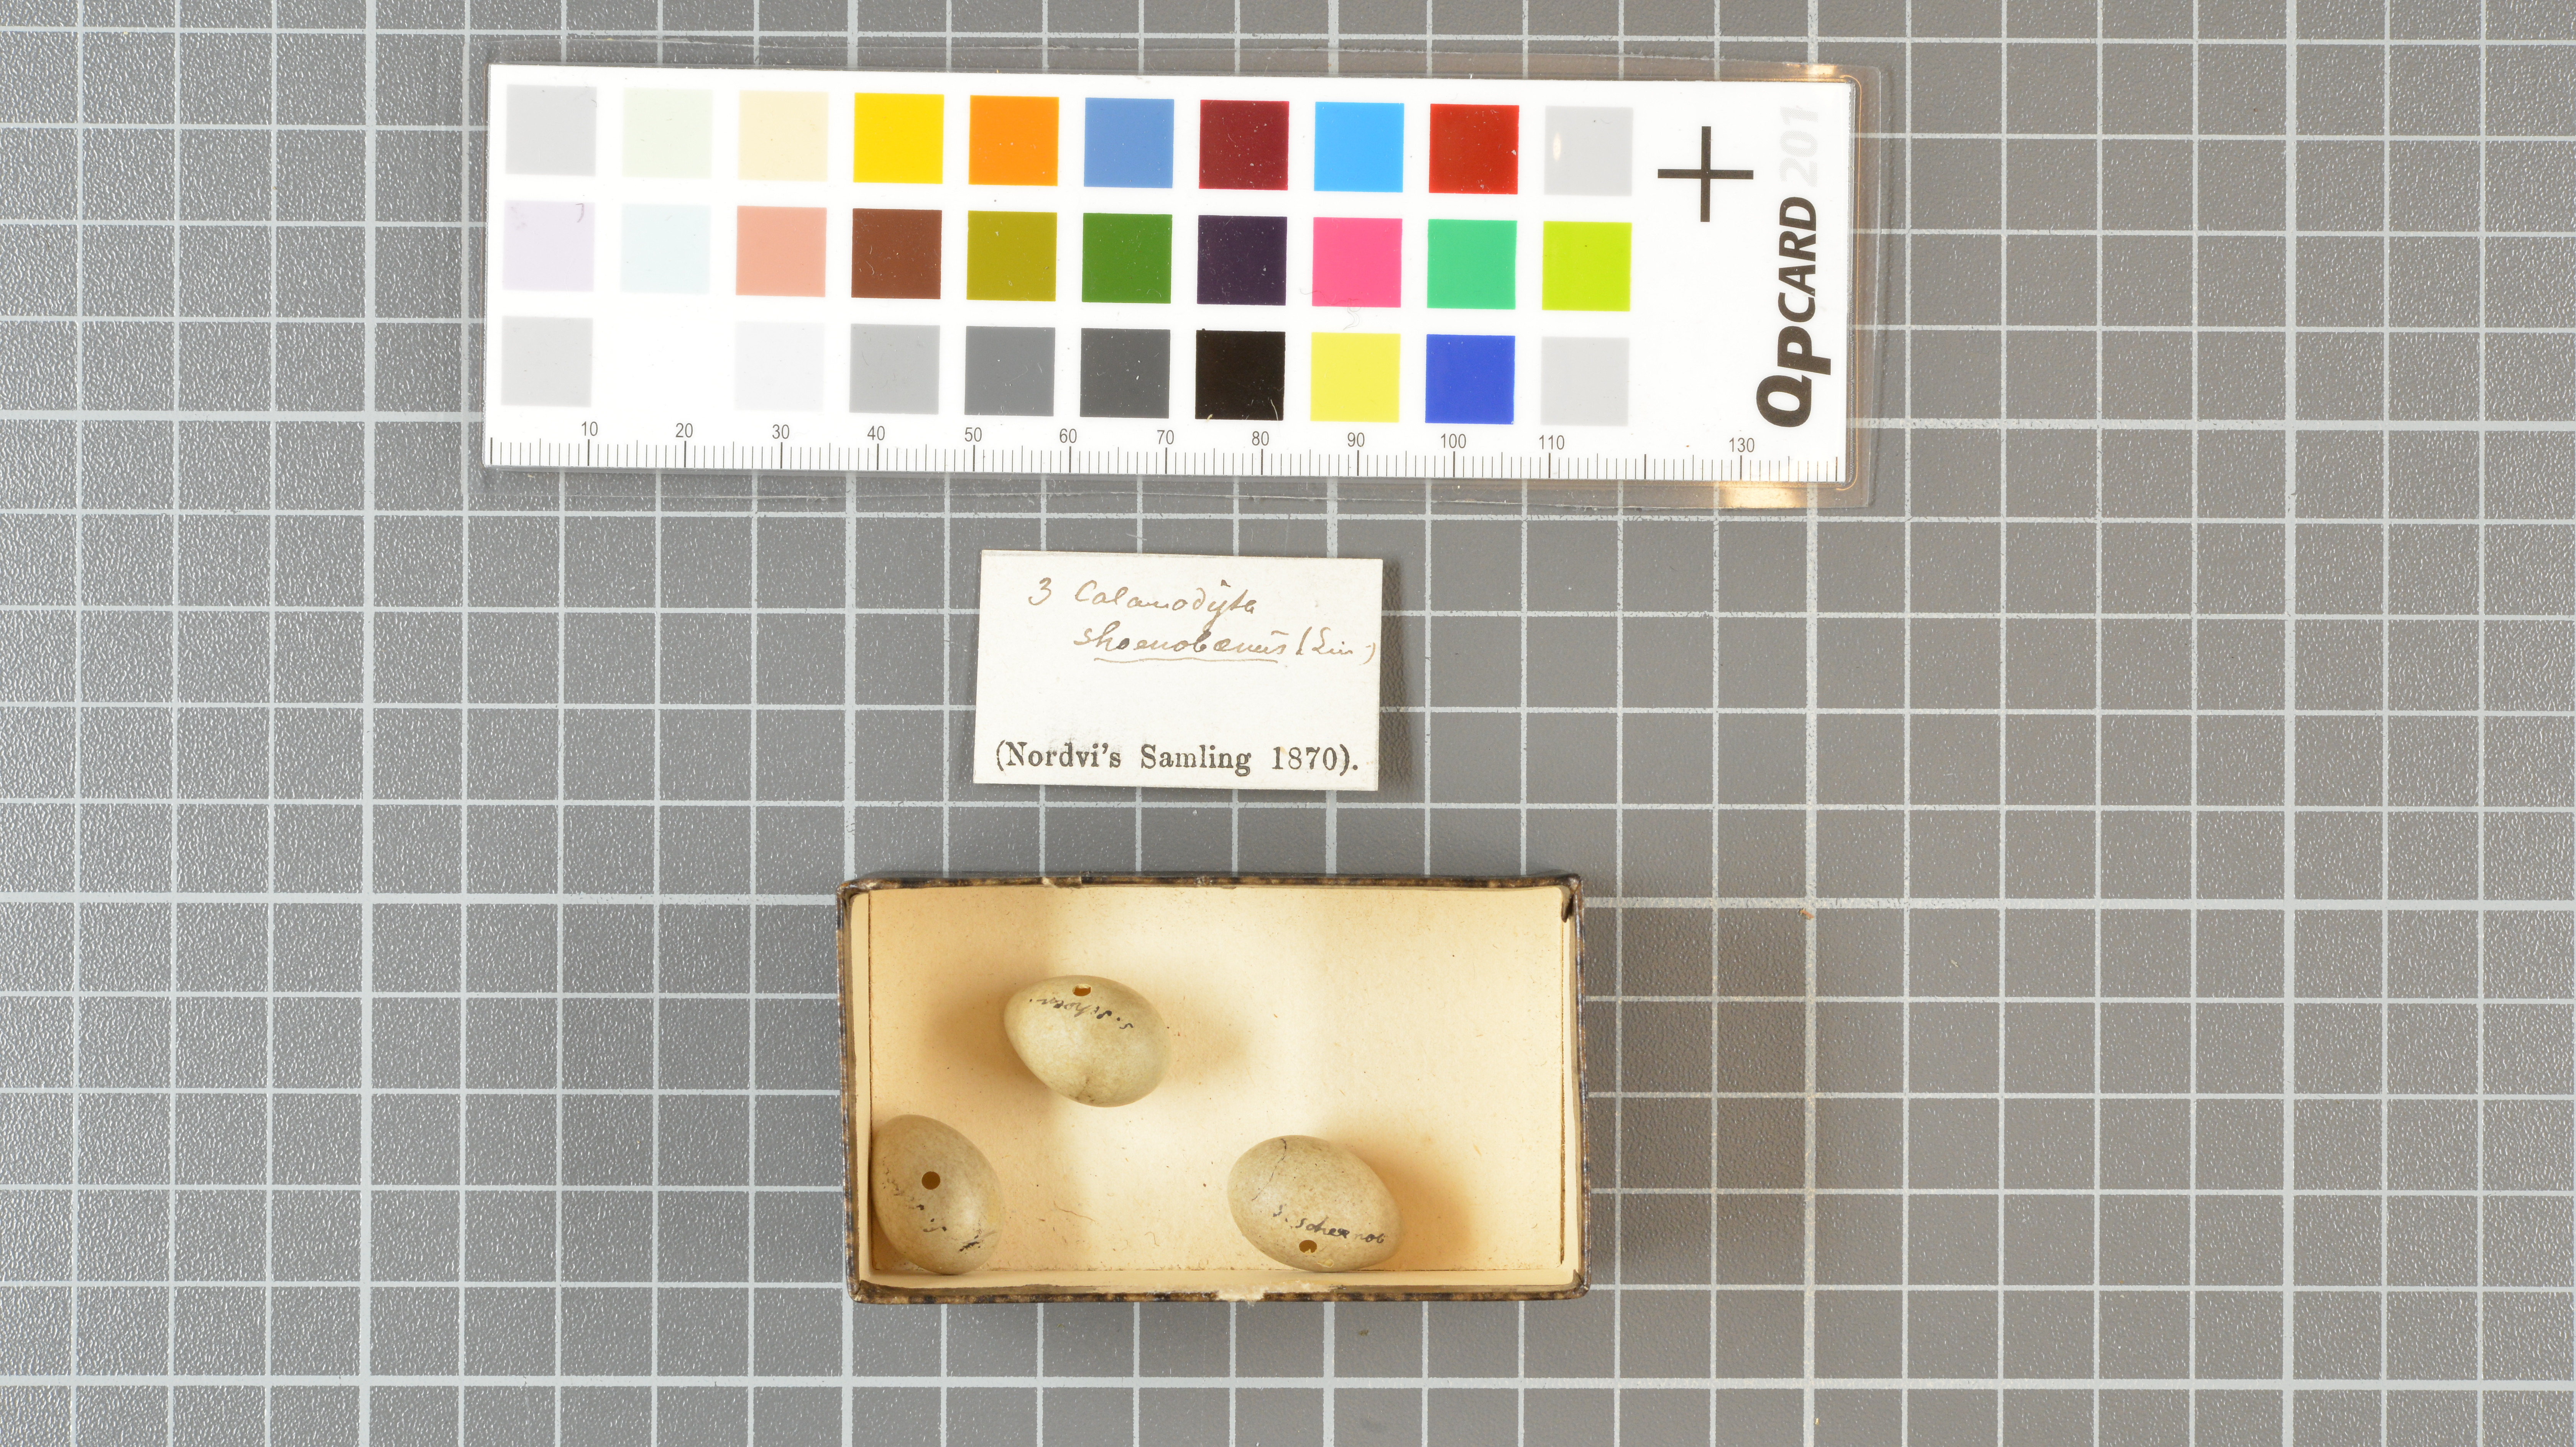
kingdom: Animalia
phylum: Chordata
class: Aves
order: Passeriformes
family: Acrocephalidae
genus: Acrocephalus
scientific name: Acrocephalus schoenobaenus
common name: Sedge warbler
